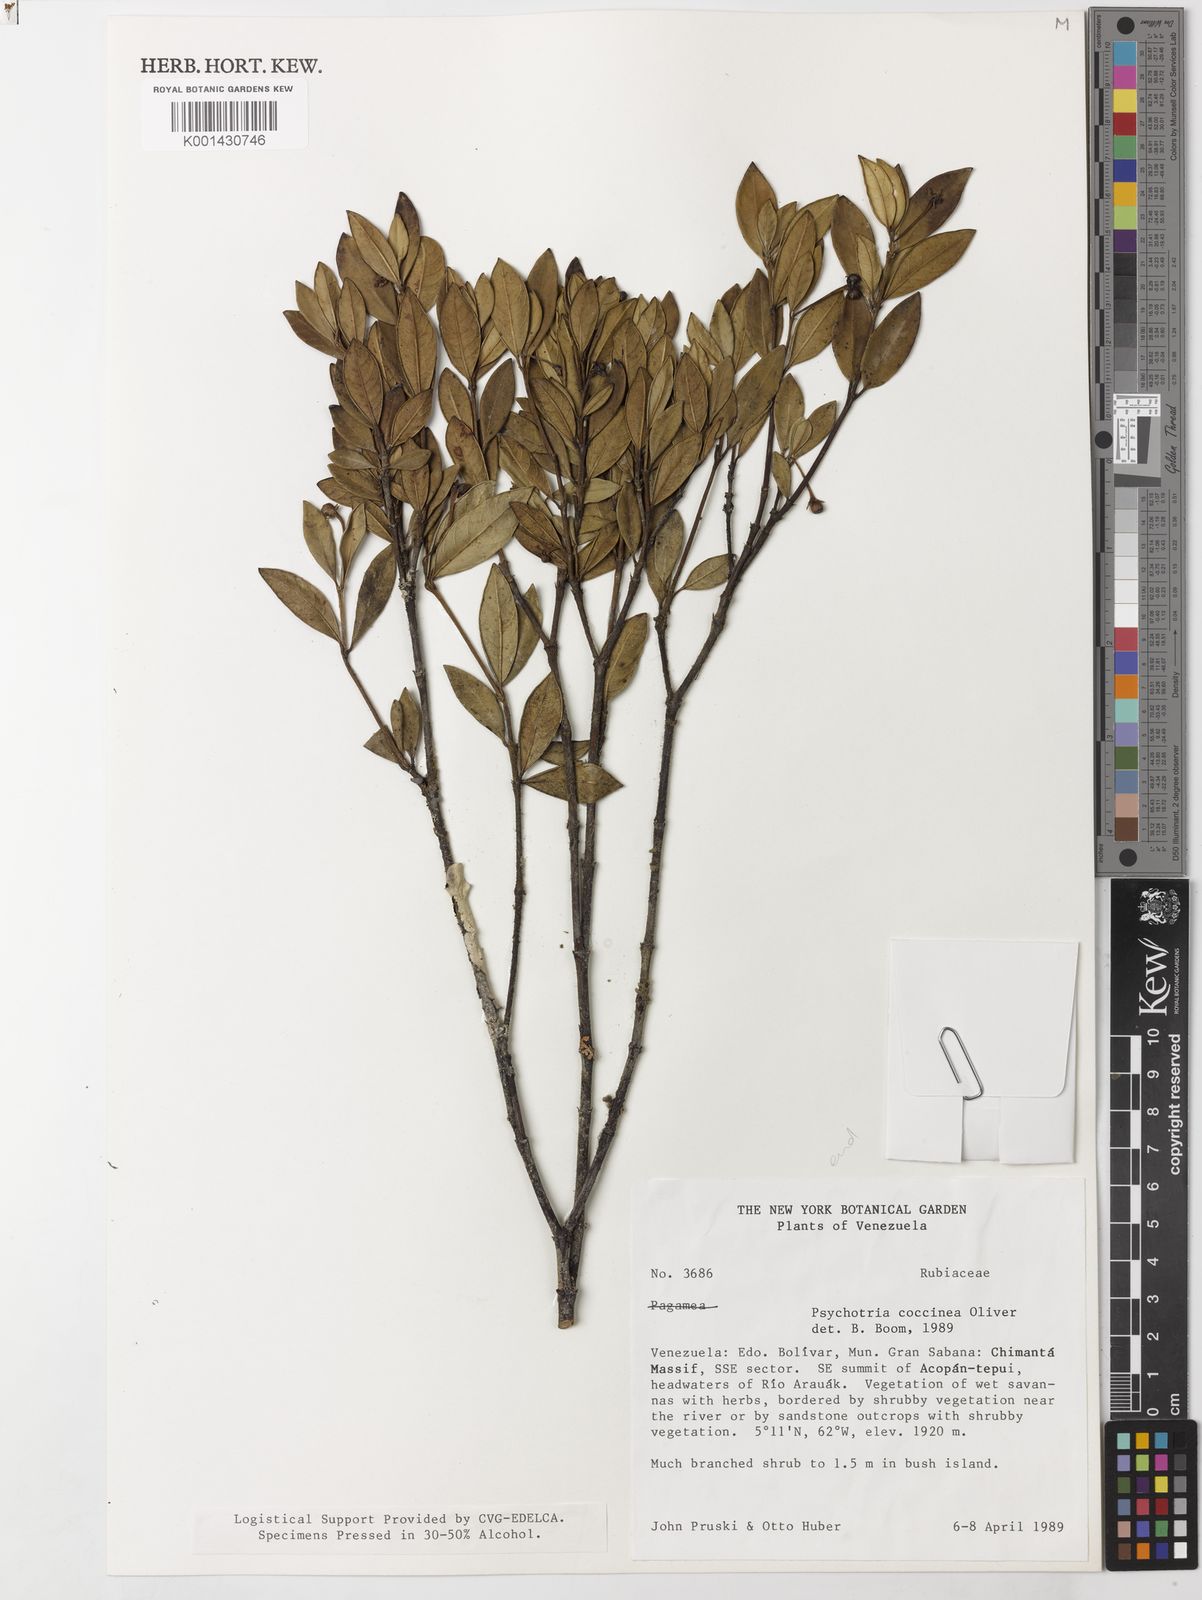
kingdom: Plantae
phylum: Tracheophyta
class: Magnoliopsida
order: Gentianales
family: Rubiaceae
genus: Palicourea
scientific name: Palicourea crocea
